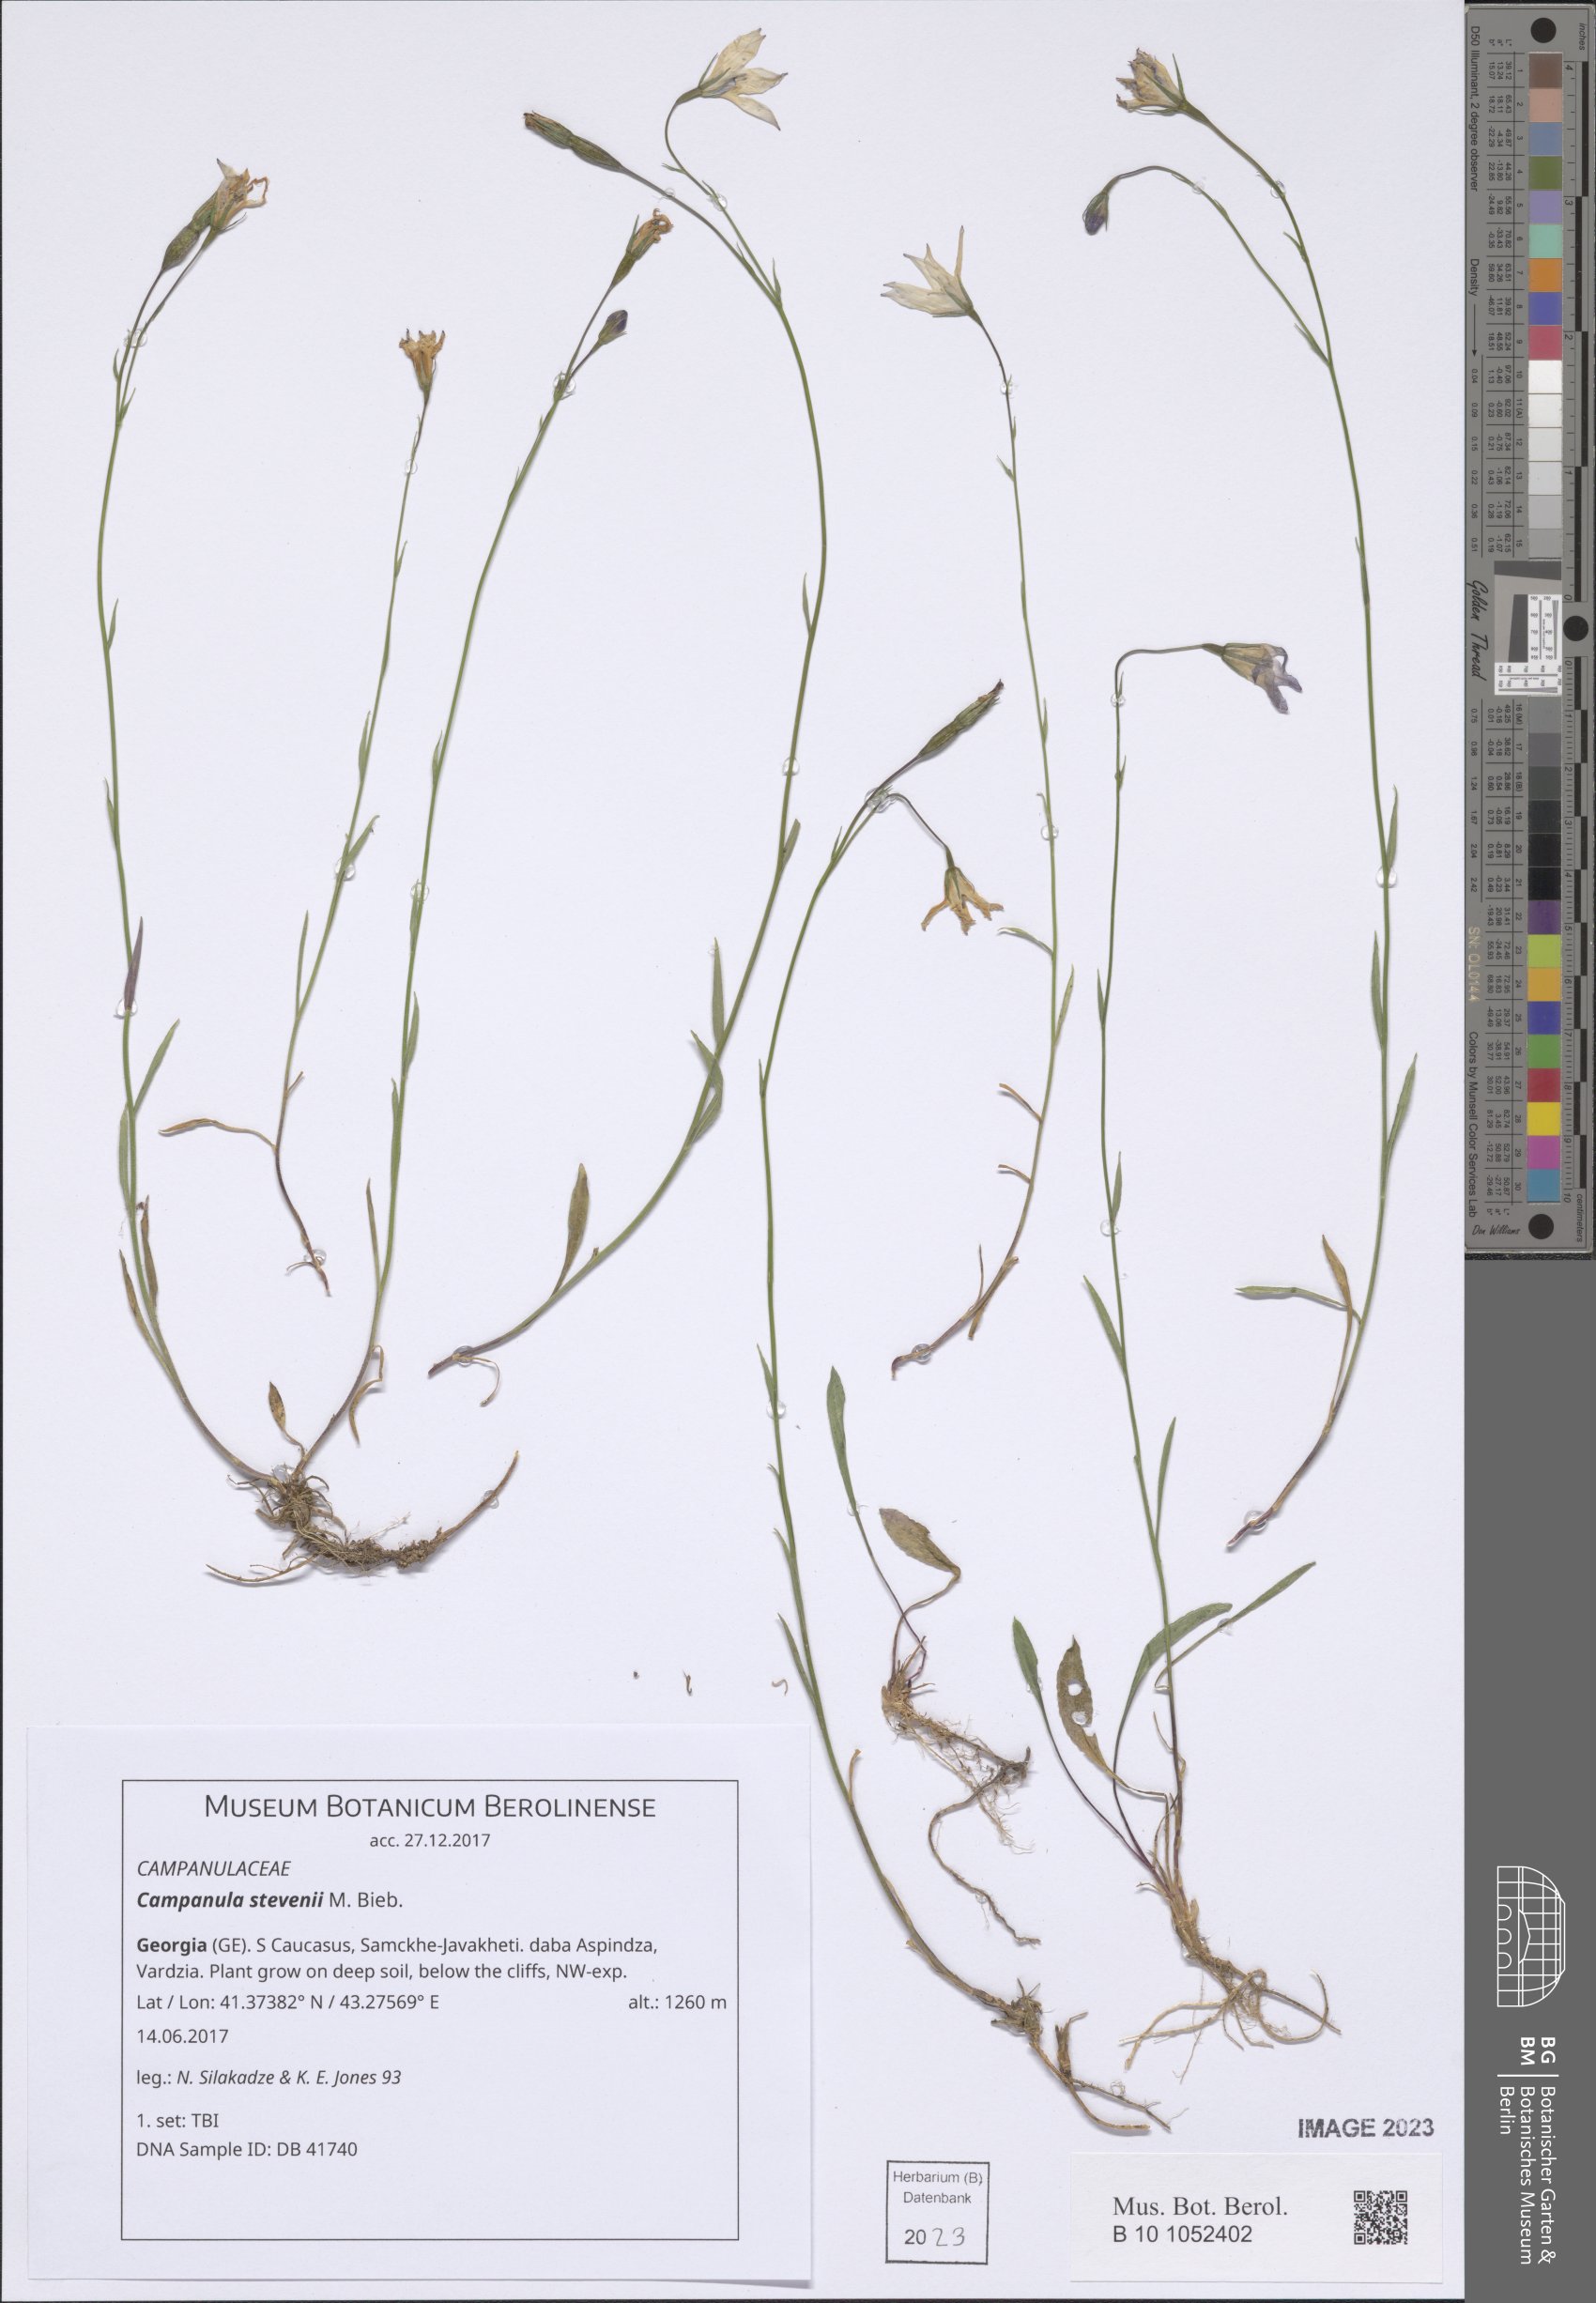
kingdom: Plantae
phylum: Tracheophyta
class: Magnoliopsida
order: Asterales
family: Campanulaceae
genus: Campanula
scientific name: Campanula stevenii
